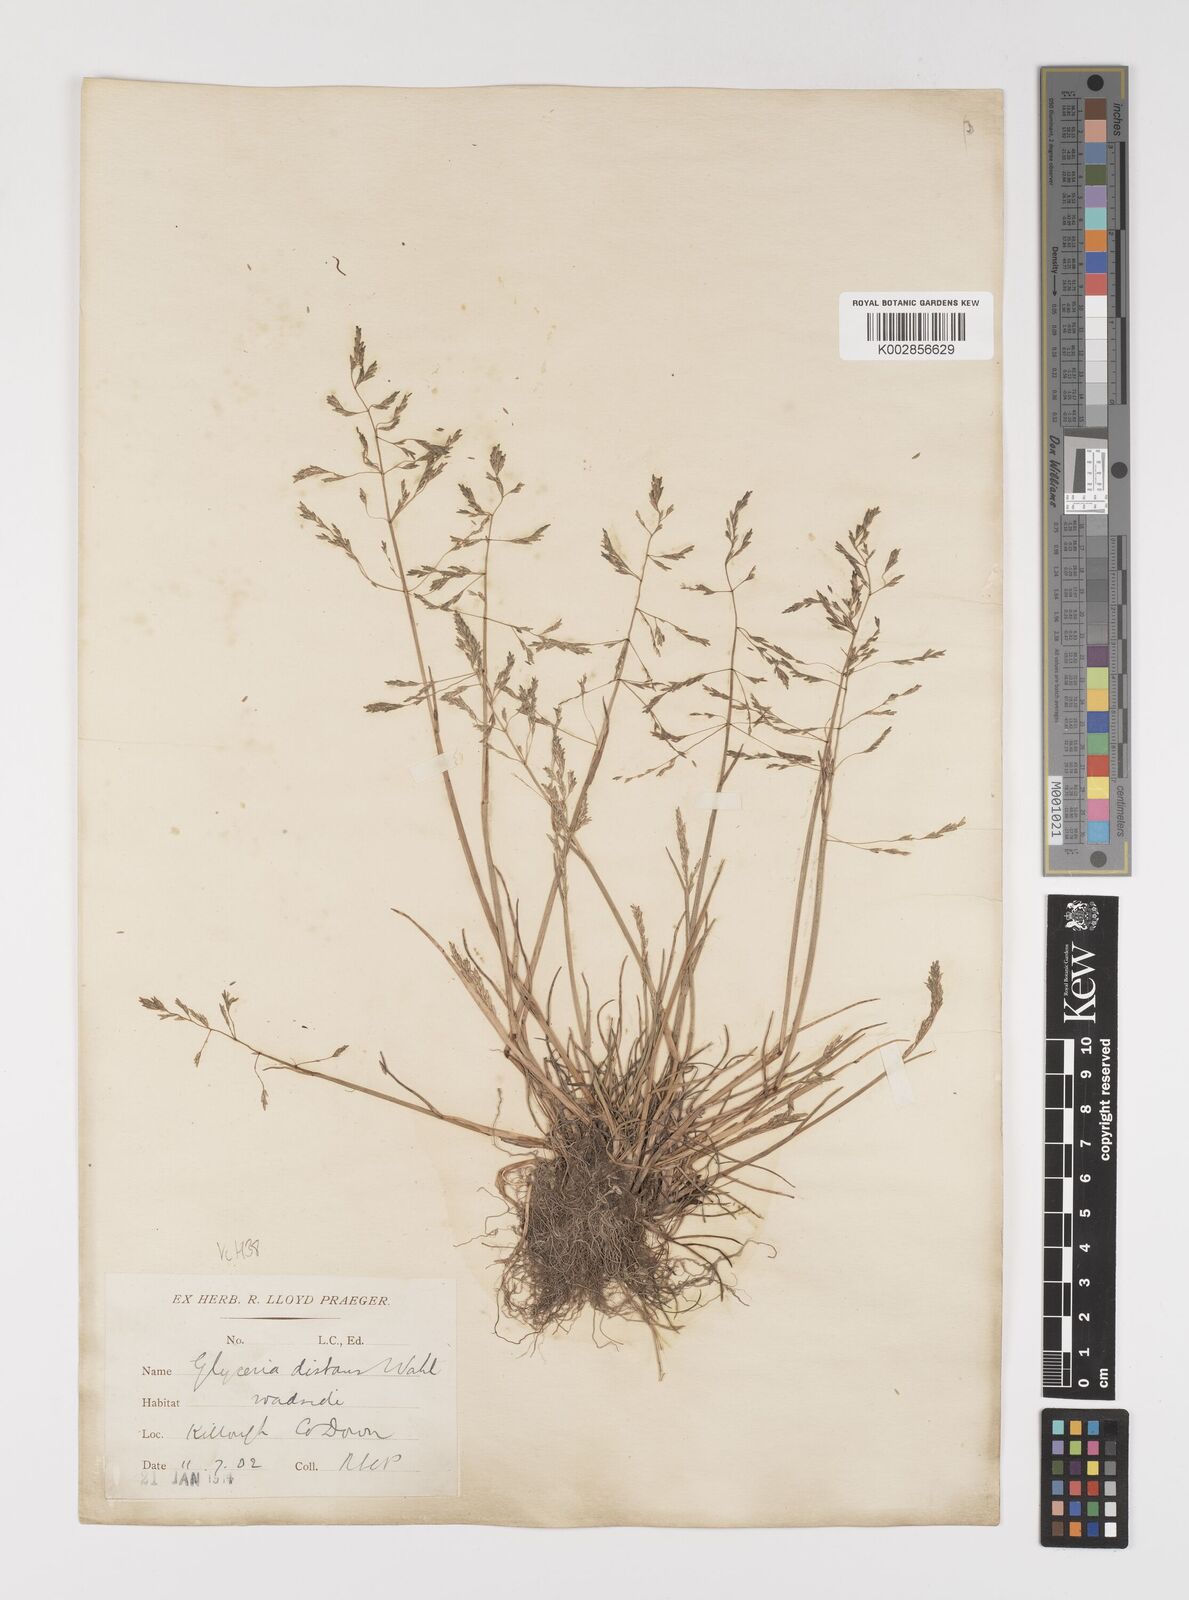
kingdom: Plantae
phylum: Tracheophyta
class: Liliopsida
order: Poales
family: Poaceae
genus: Puccinellia
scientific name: Puccinellia distans
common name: Weeping alkaligrass
